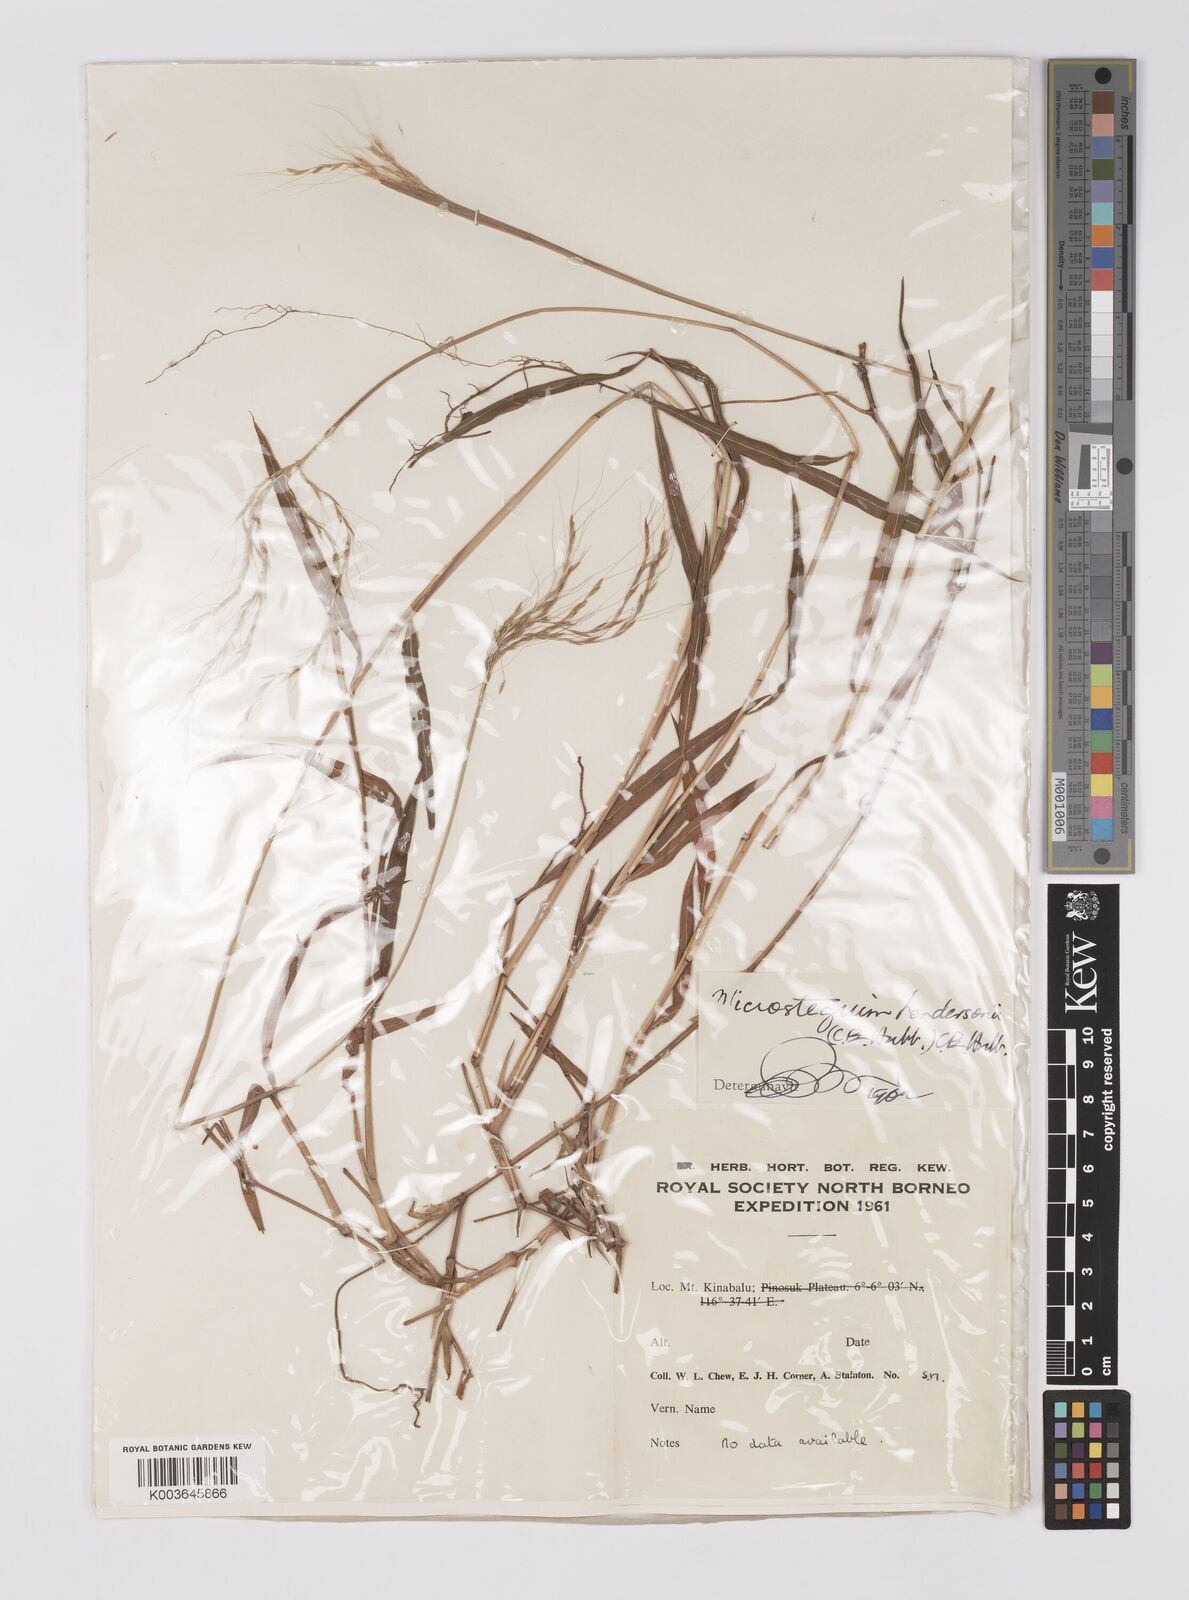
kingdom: Plantae
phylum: Tracheophyta
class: Liliopsida
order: Poales
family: Poaceae
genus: Microstegium
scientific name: Microstegium geniculatum
